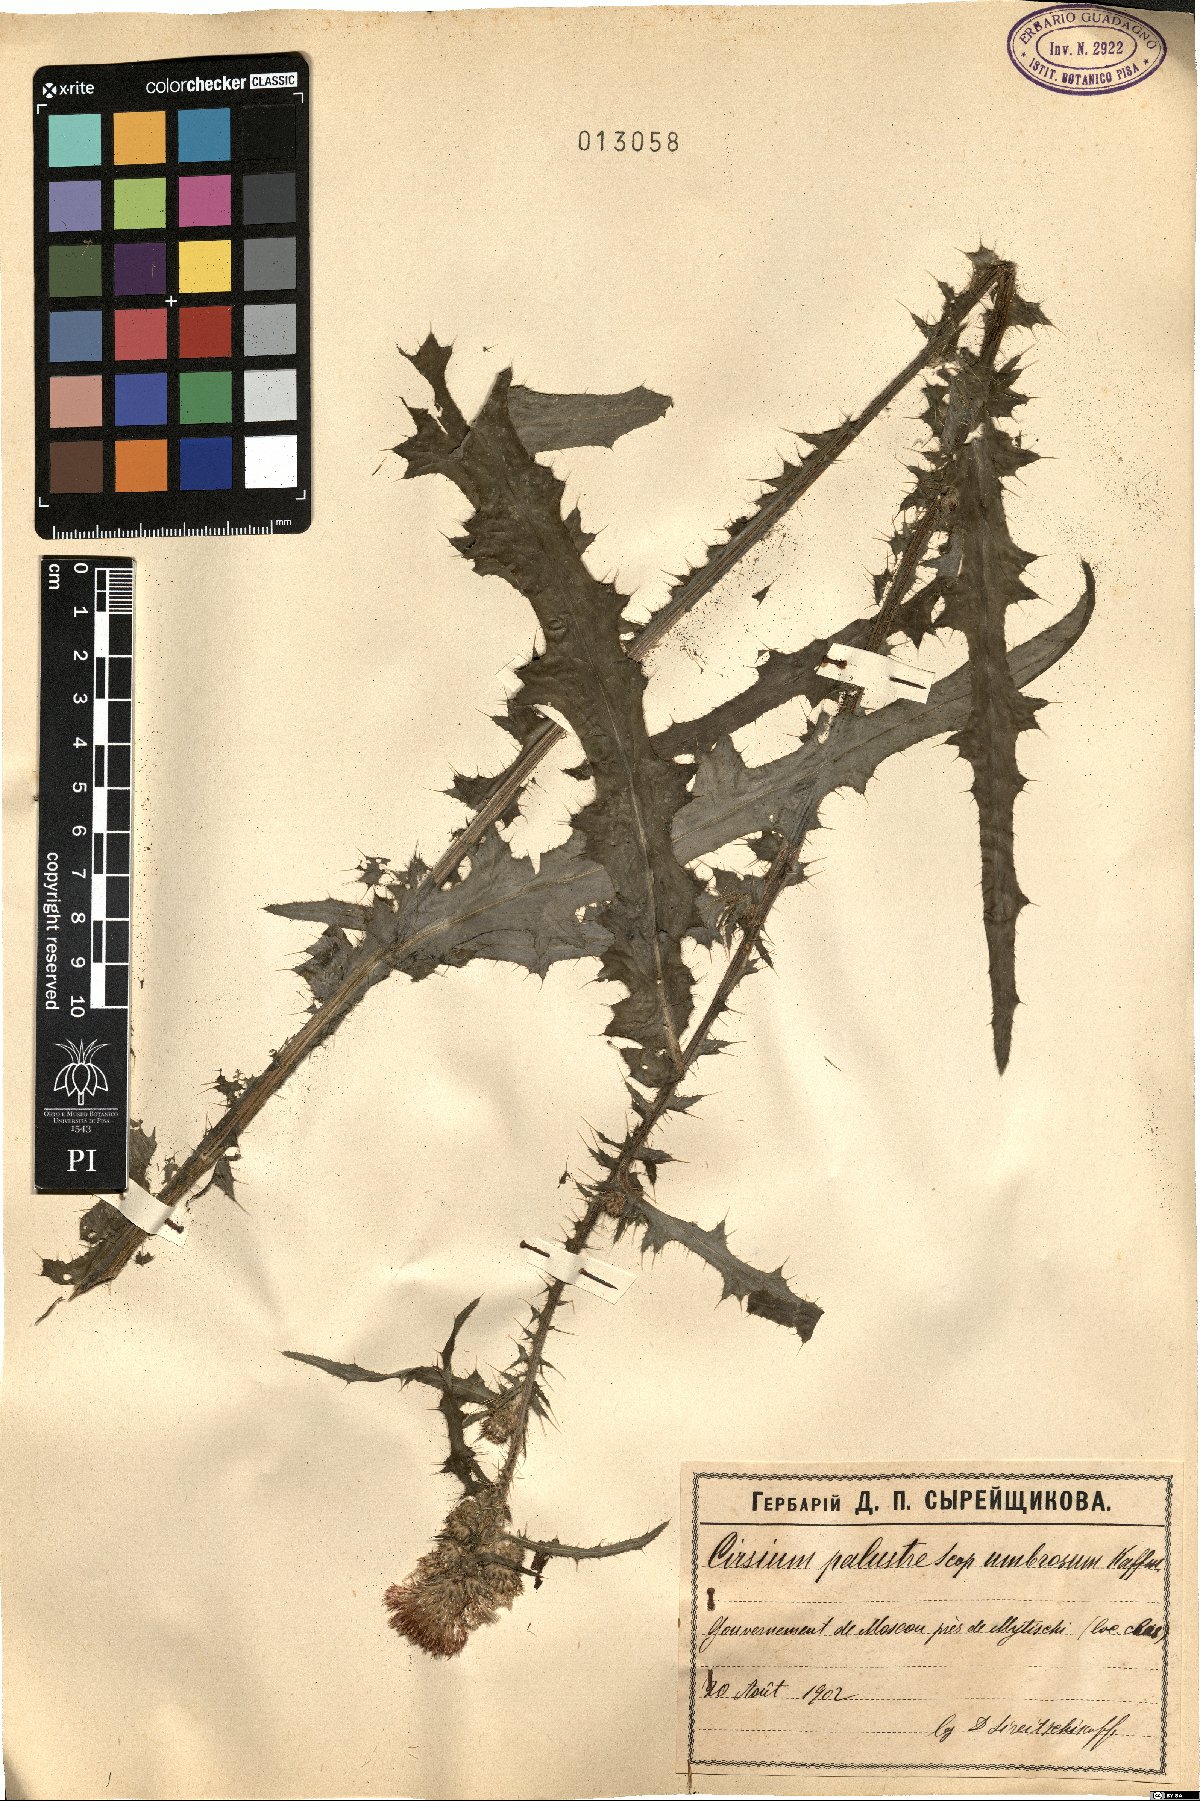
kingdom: Plantae
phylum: Tracheophyta
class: Magnoliopsida
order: Asterales
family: Asteraceae
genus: Cirsium
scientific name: Cirsium palustre
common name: Marsh thistle
